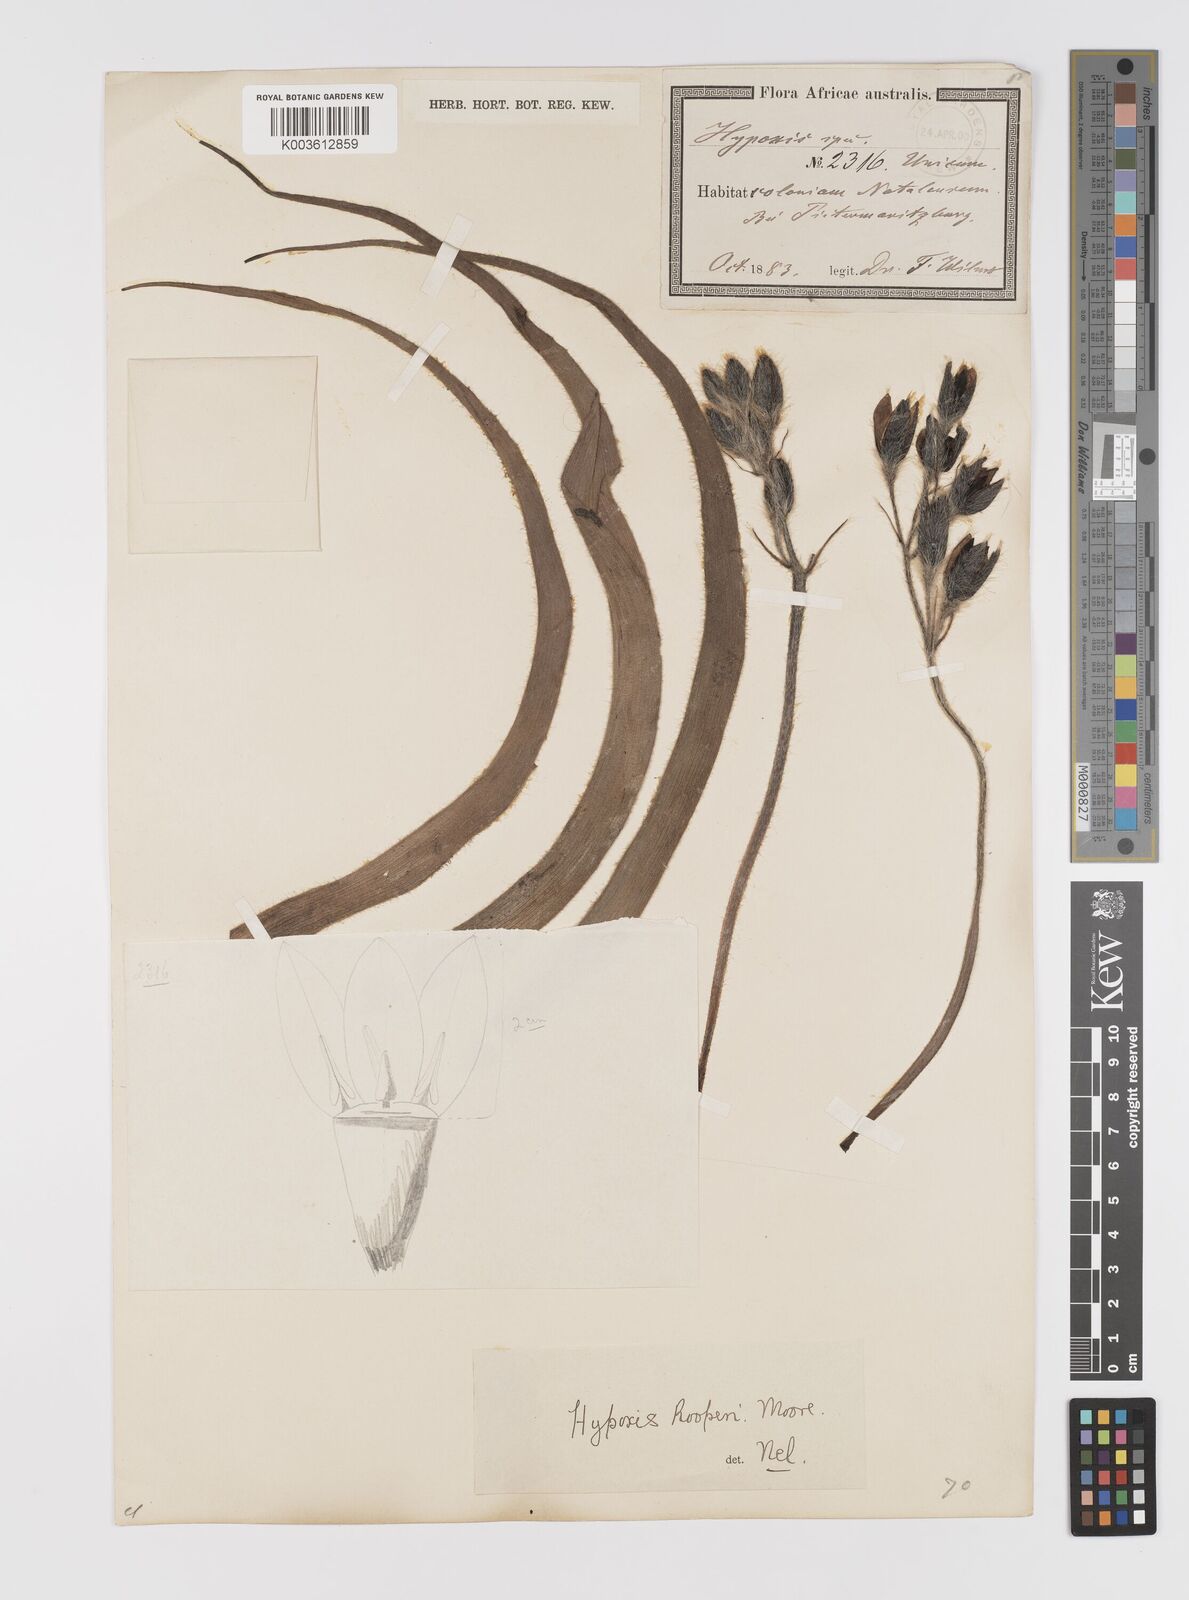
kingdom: Plantae
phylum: Tracheophyta
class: Liliopsida
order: Asparagales
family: Hypoxidaceae
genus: Hypoxis
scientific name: Hypoxis hemerocallidea
